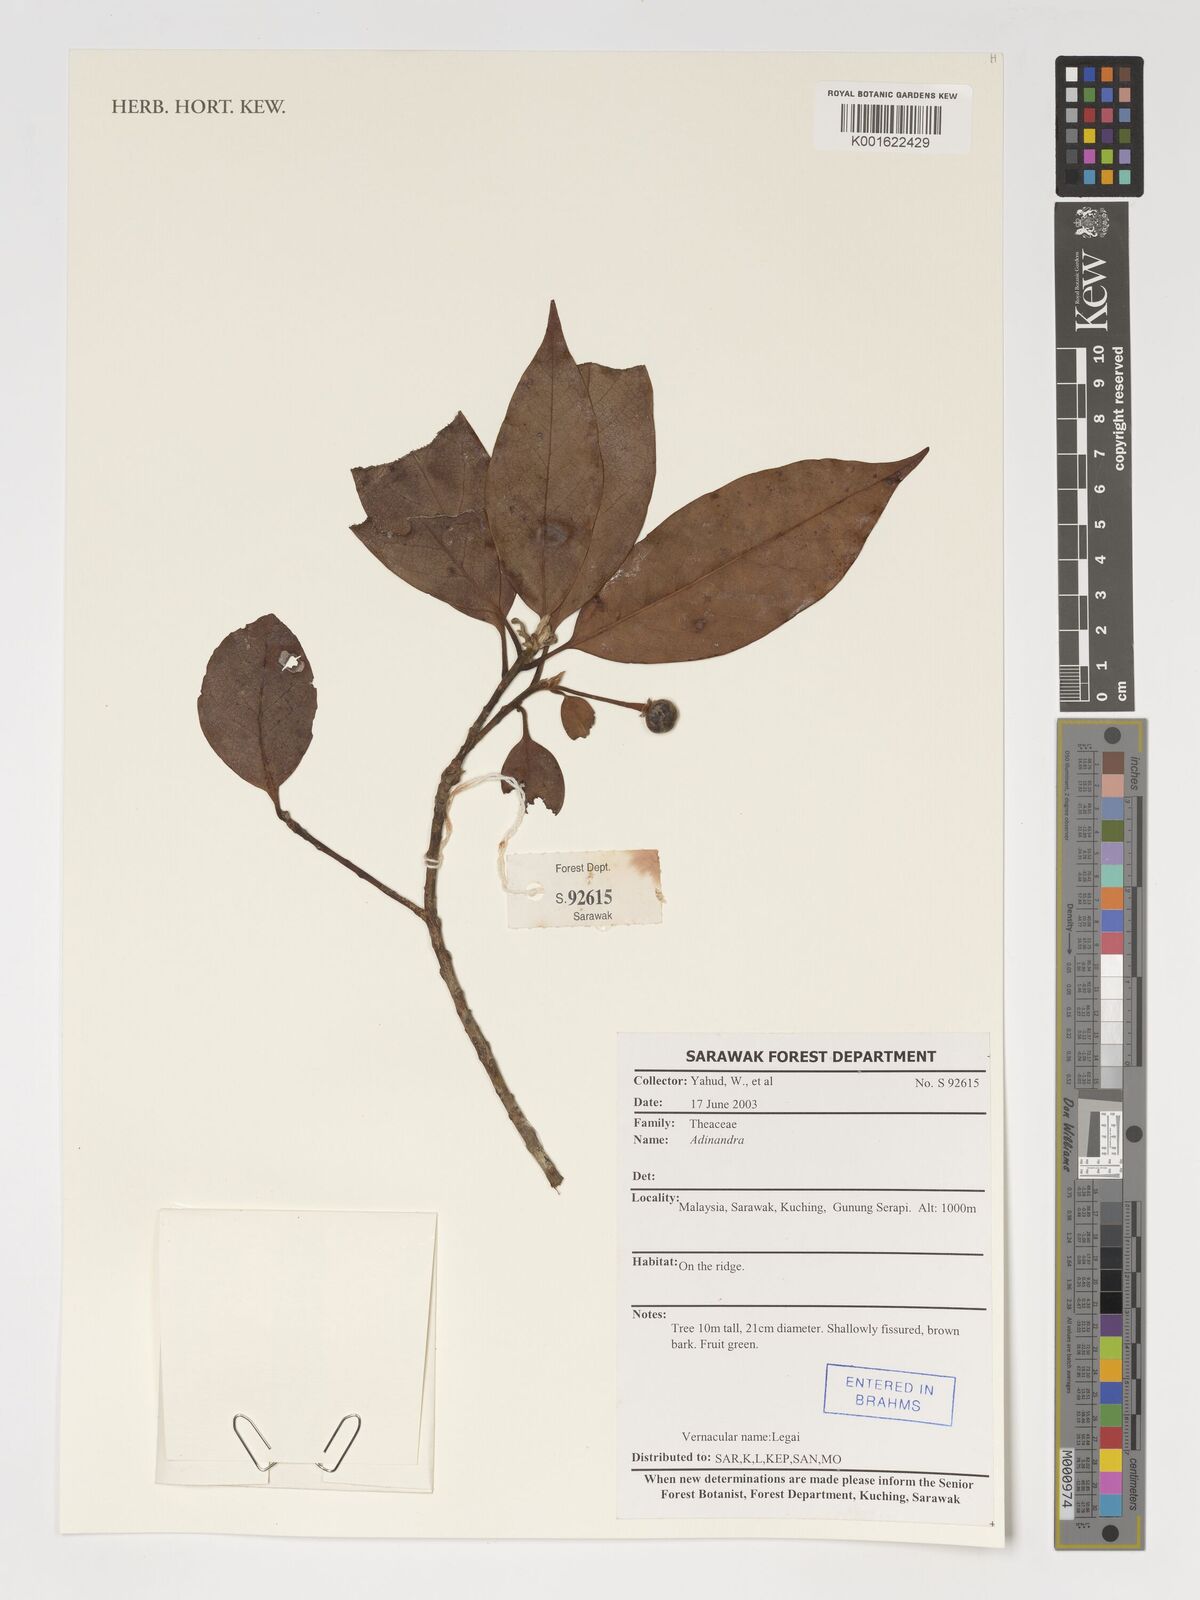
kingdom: Plantae
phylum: Tracheophyta
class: Magnoliopsida
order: Ericales
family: Pentaphylacaceae
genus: Adinandra
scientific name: Adinandra
